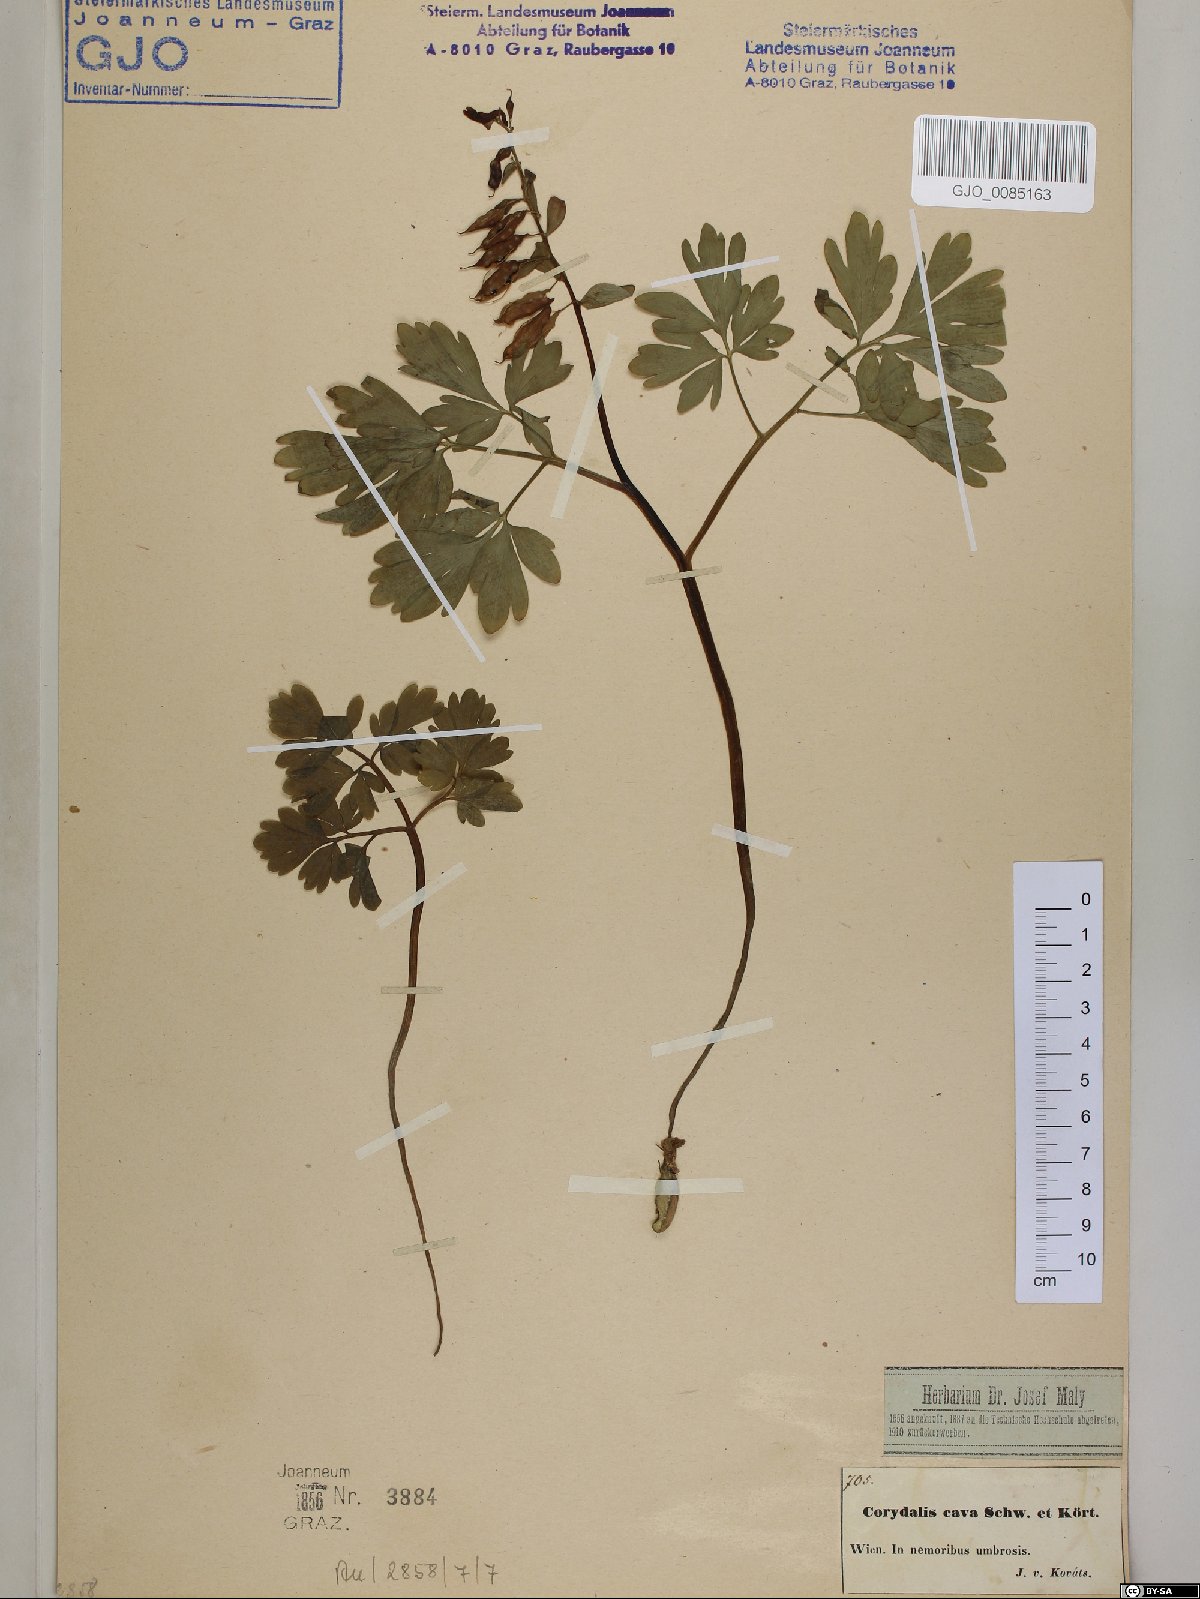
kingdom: Plantae
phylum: Tracheophyta
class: Magnoliopsida
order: Ranunculales
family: Papaveraceae
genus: Corydalis
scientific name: Corydalis cava
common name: Hollowroot
